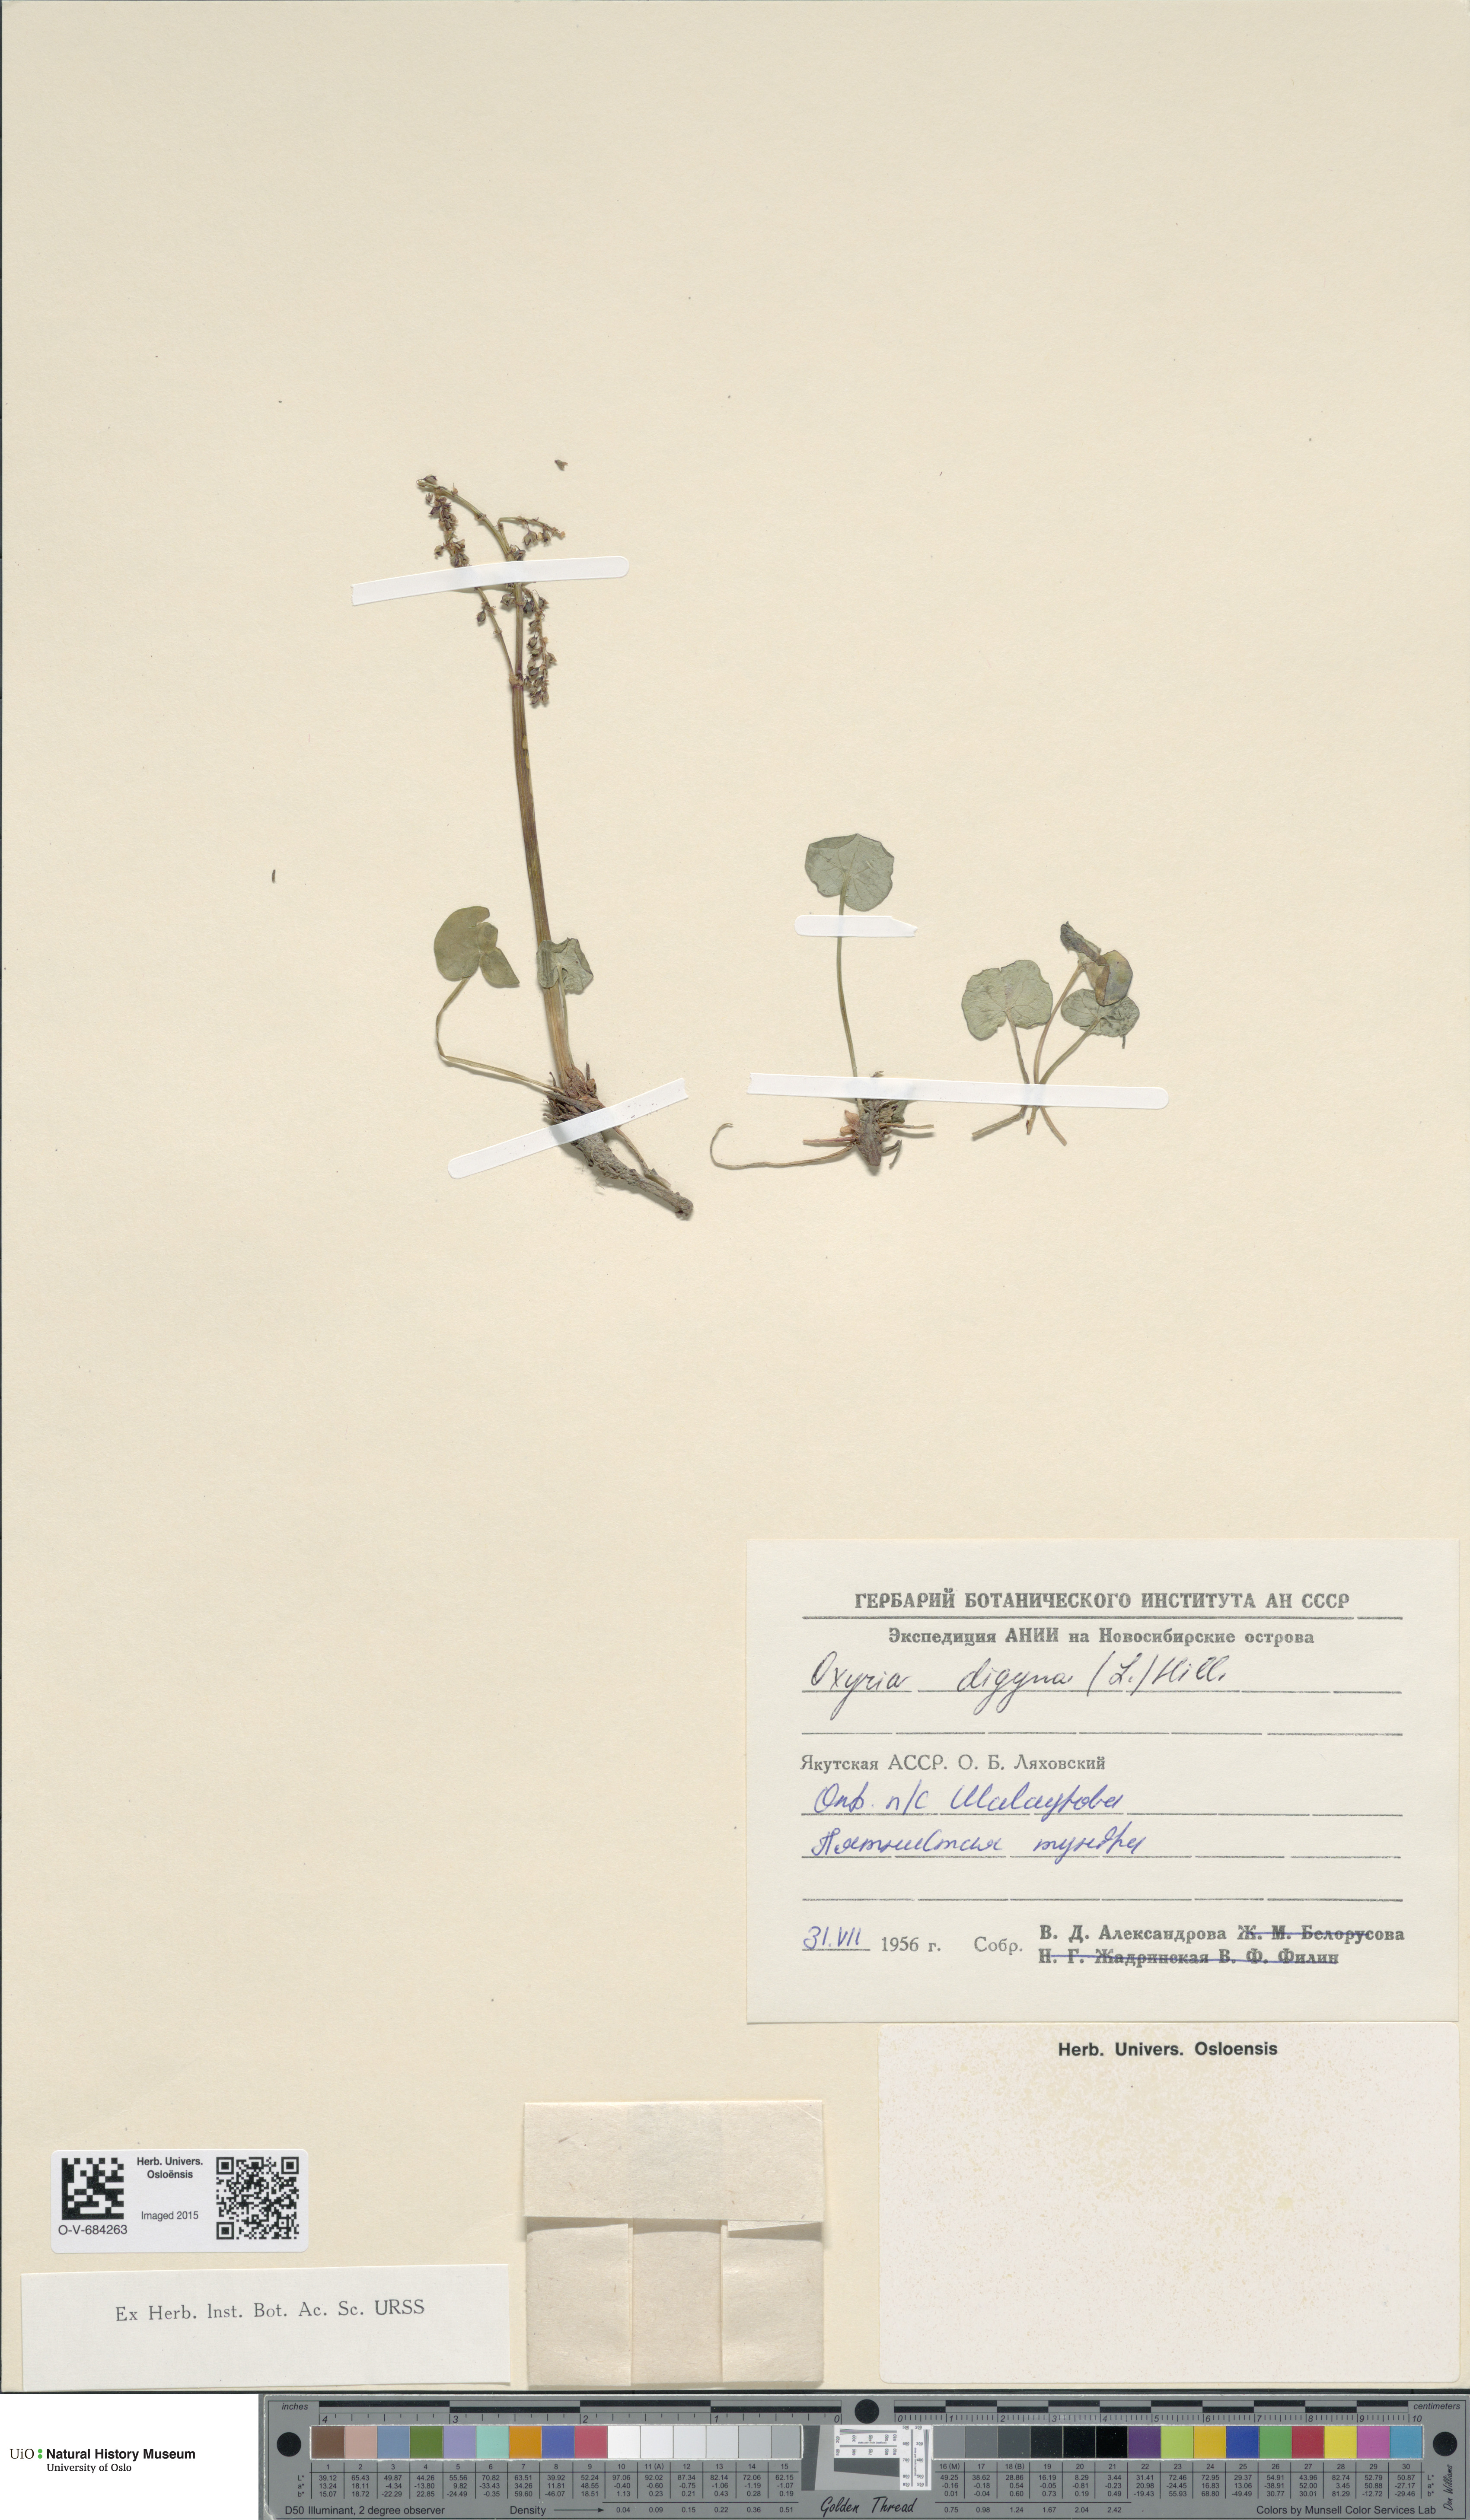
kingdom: Plantae
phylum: Tracheophyta
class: Magnoliopsida
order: Caryophyllales
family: Polygonaceae
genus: Oxyria
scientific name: Oxyria digyna
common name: Alpine mountain-sorrel
